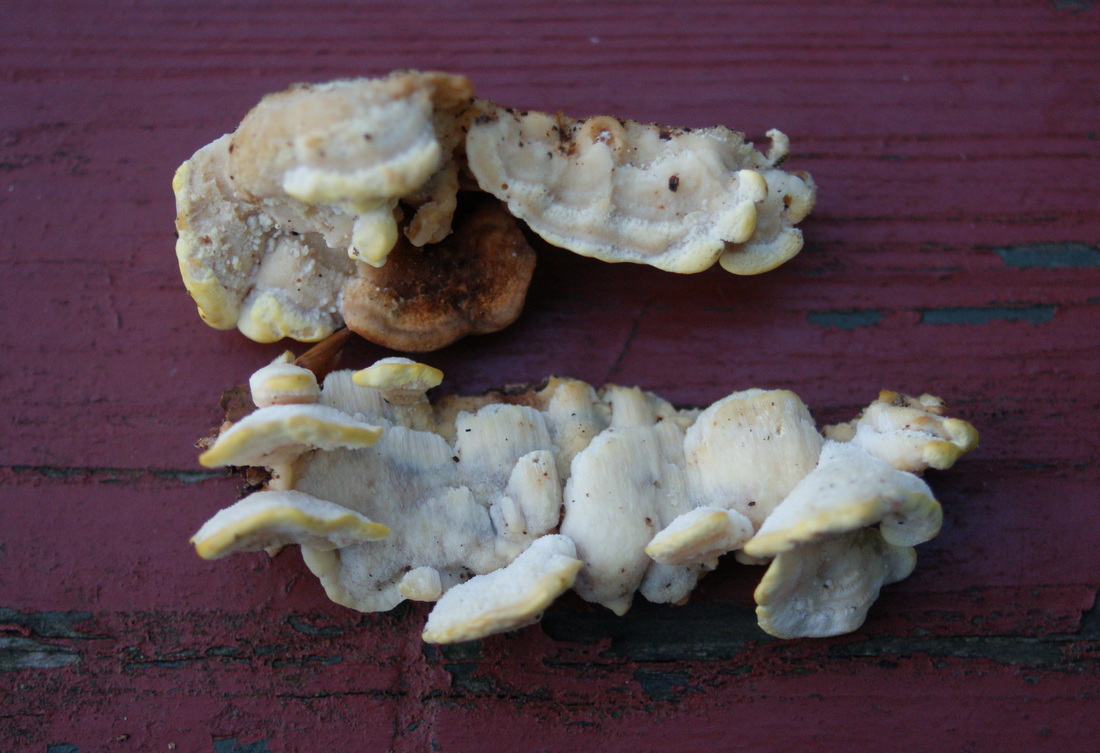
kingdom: Fungi
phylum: Basidiomycota
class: Agaricomycetes
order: Polyporales
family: Steccherinaceae
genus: Antrodiella
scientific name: Antrodiella serpula
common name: gulrandet elastikporesvamp
